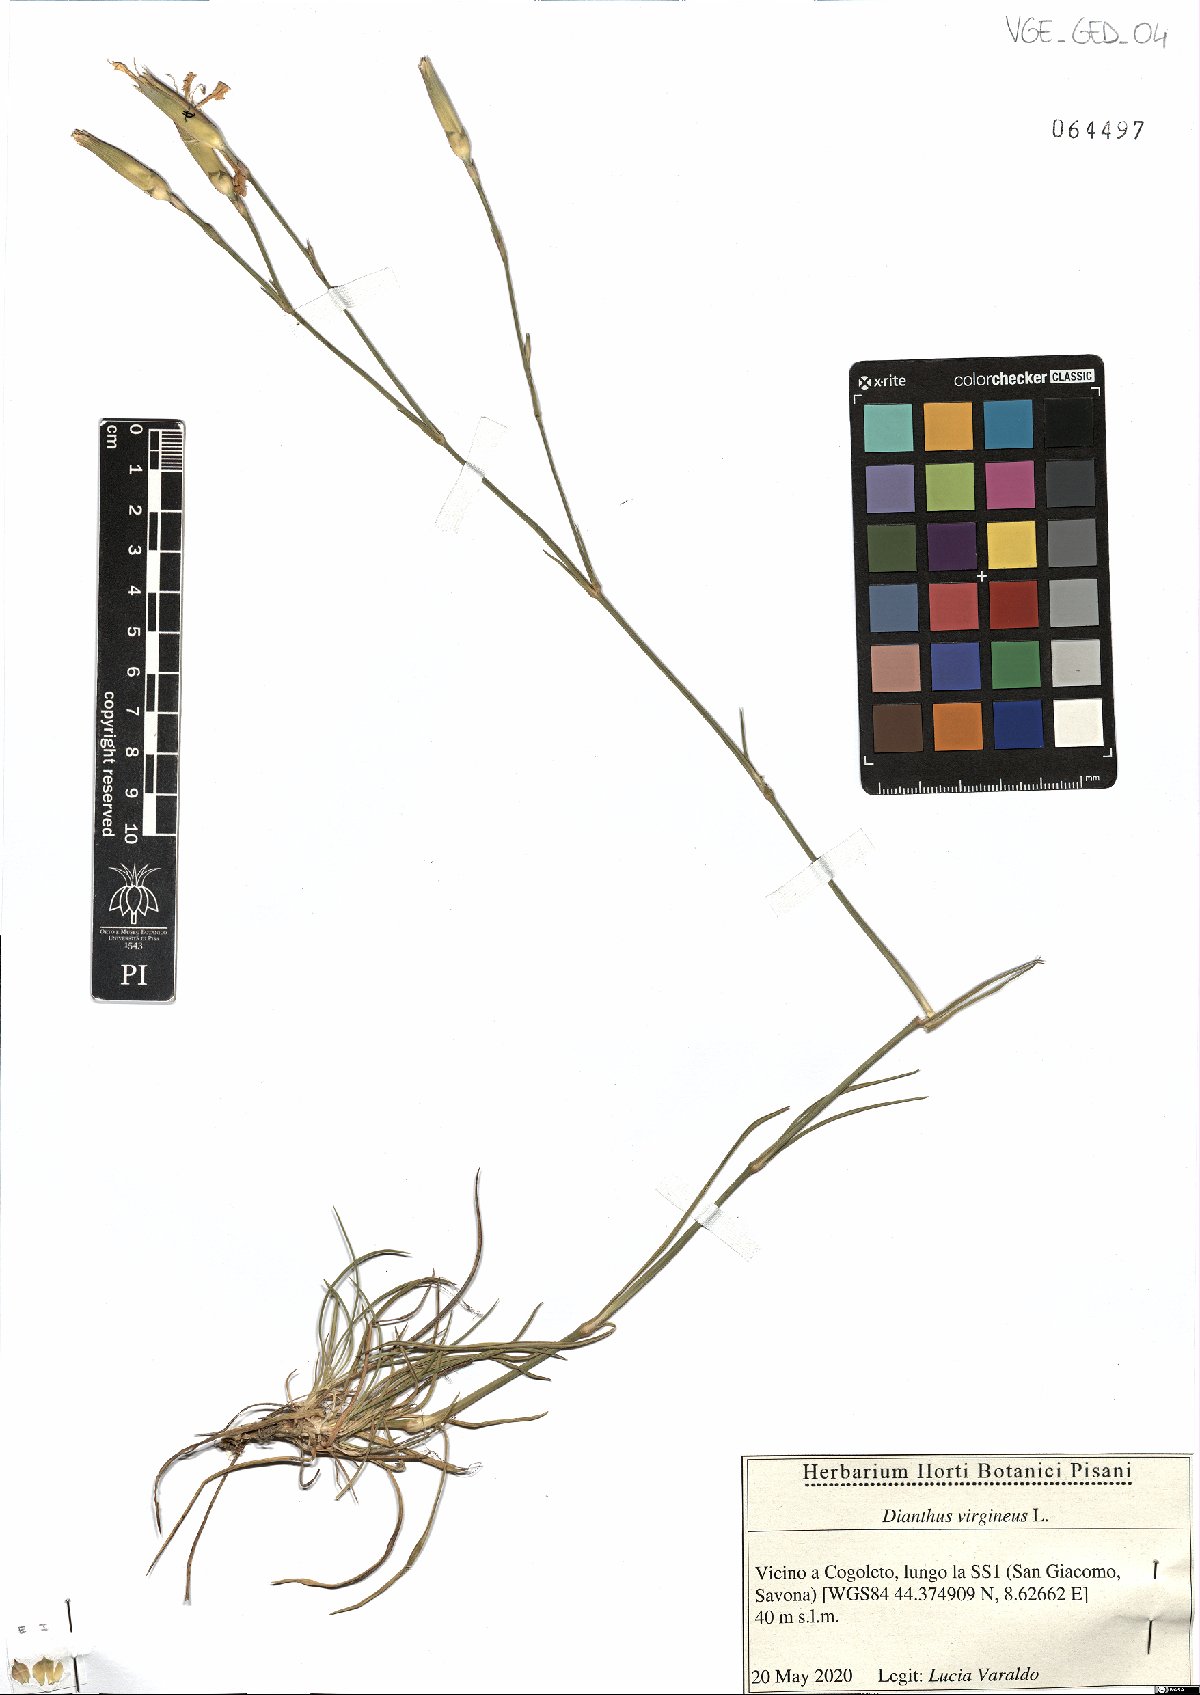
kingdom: Plantae
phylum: Tracheophyta
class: Magnoliopsida
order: Caryophyllales
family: Caryophyllaceae
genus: Dianthus
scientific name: Dianthus virgineus
